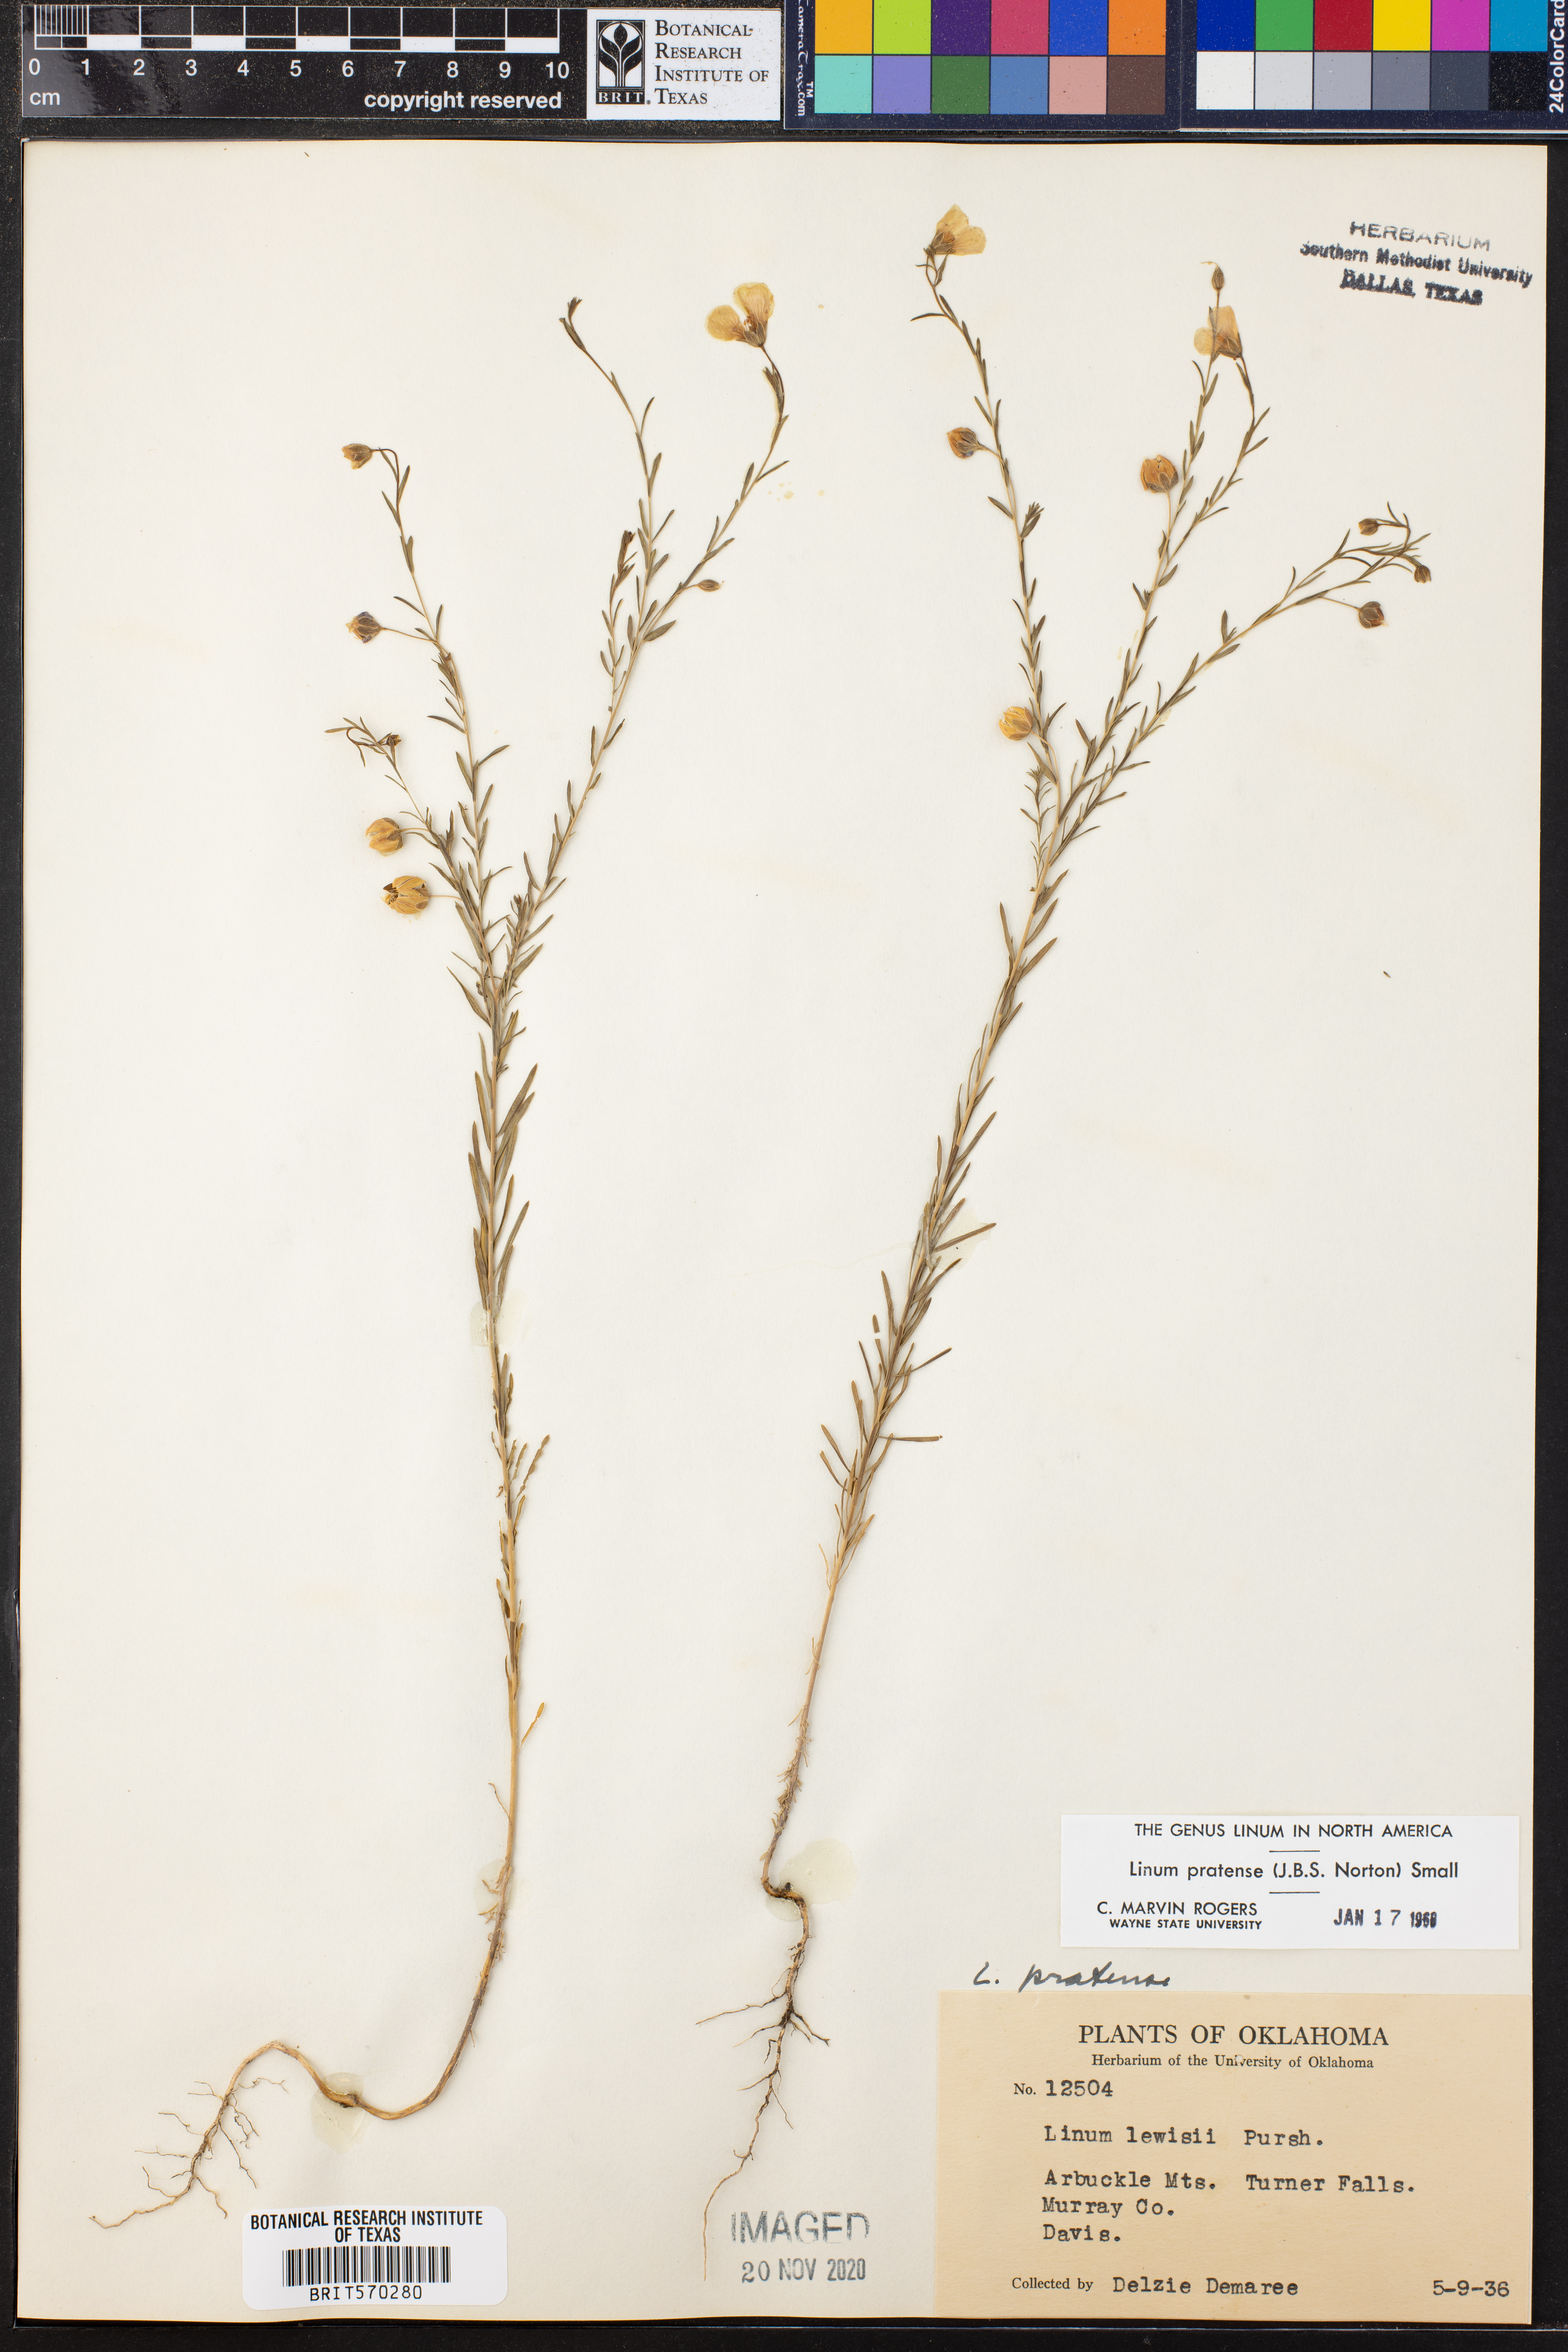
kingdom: Plantae
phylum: Tracheophyta
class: Magnoliopsida
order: Malpighiales
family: Linaceae
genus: Linum
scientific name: Linum pratense
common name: Norton's flax
